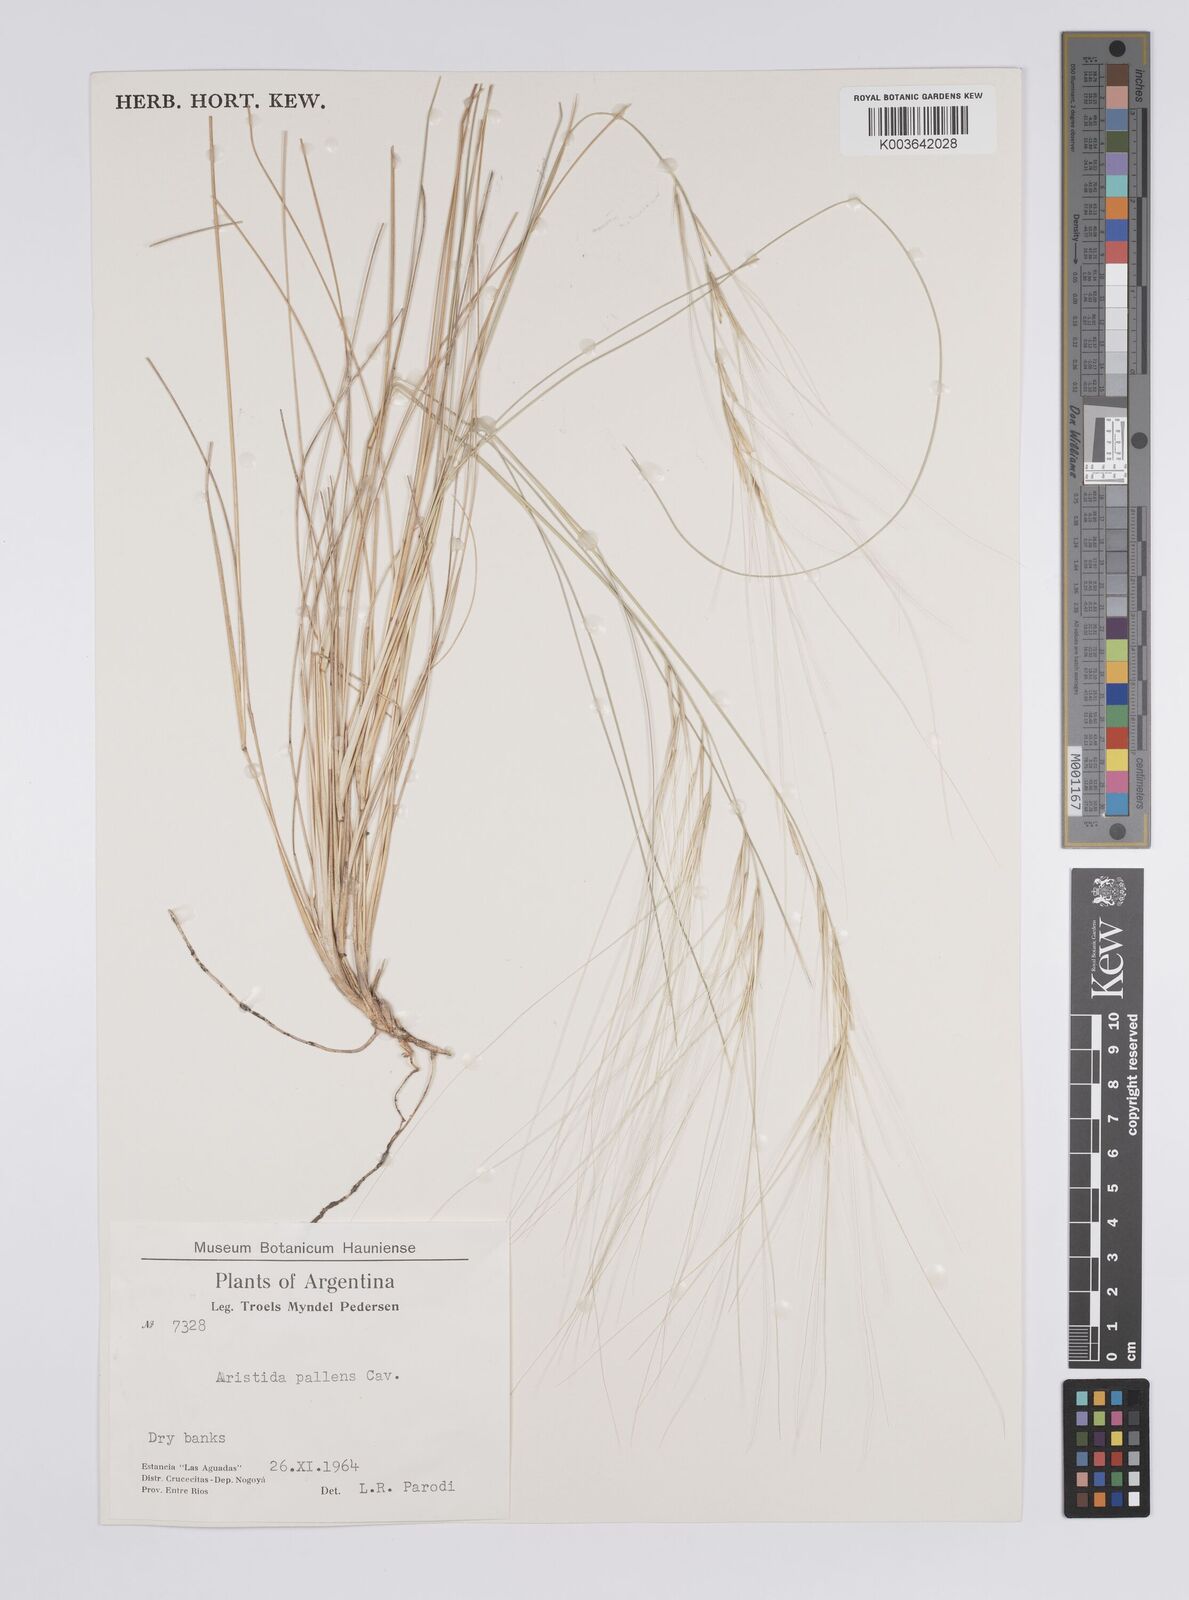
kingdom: Plantae
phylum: Tracheophyta
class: Liliopsida
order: Poales
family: Poaceae
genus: Aristida
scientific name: Aristida pallens
